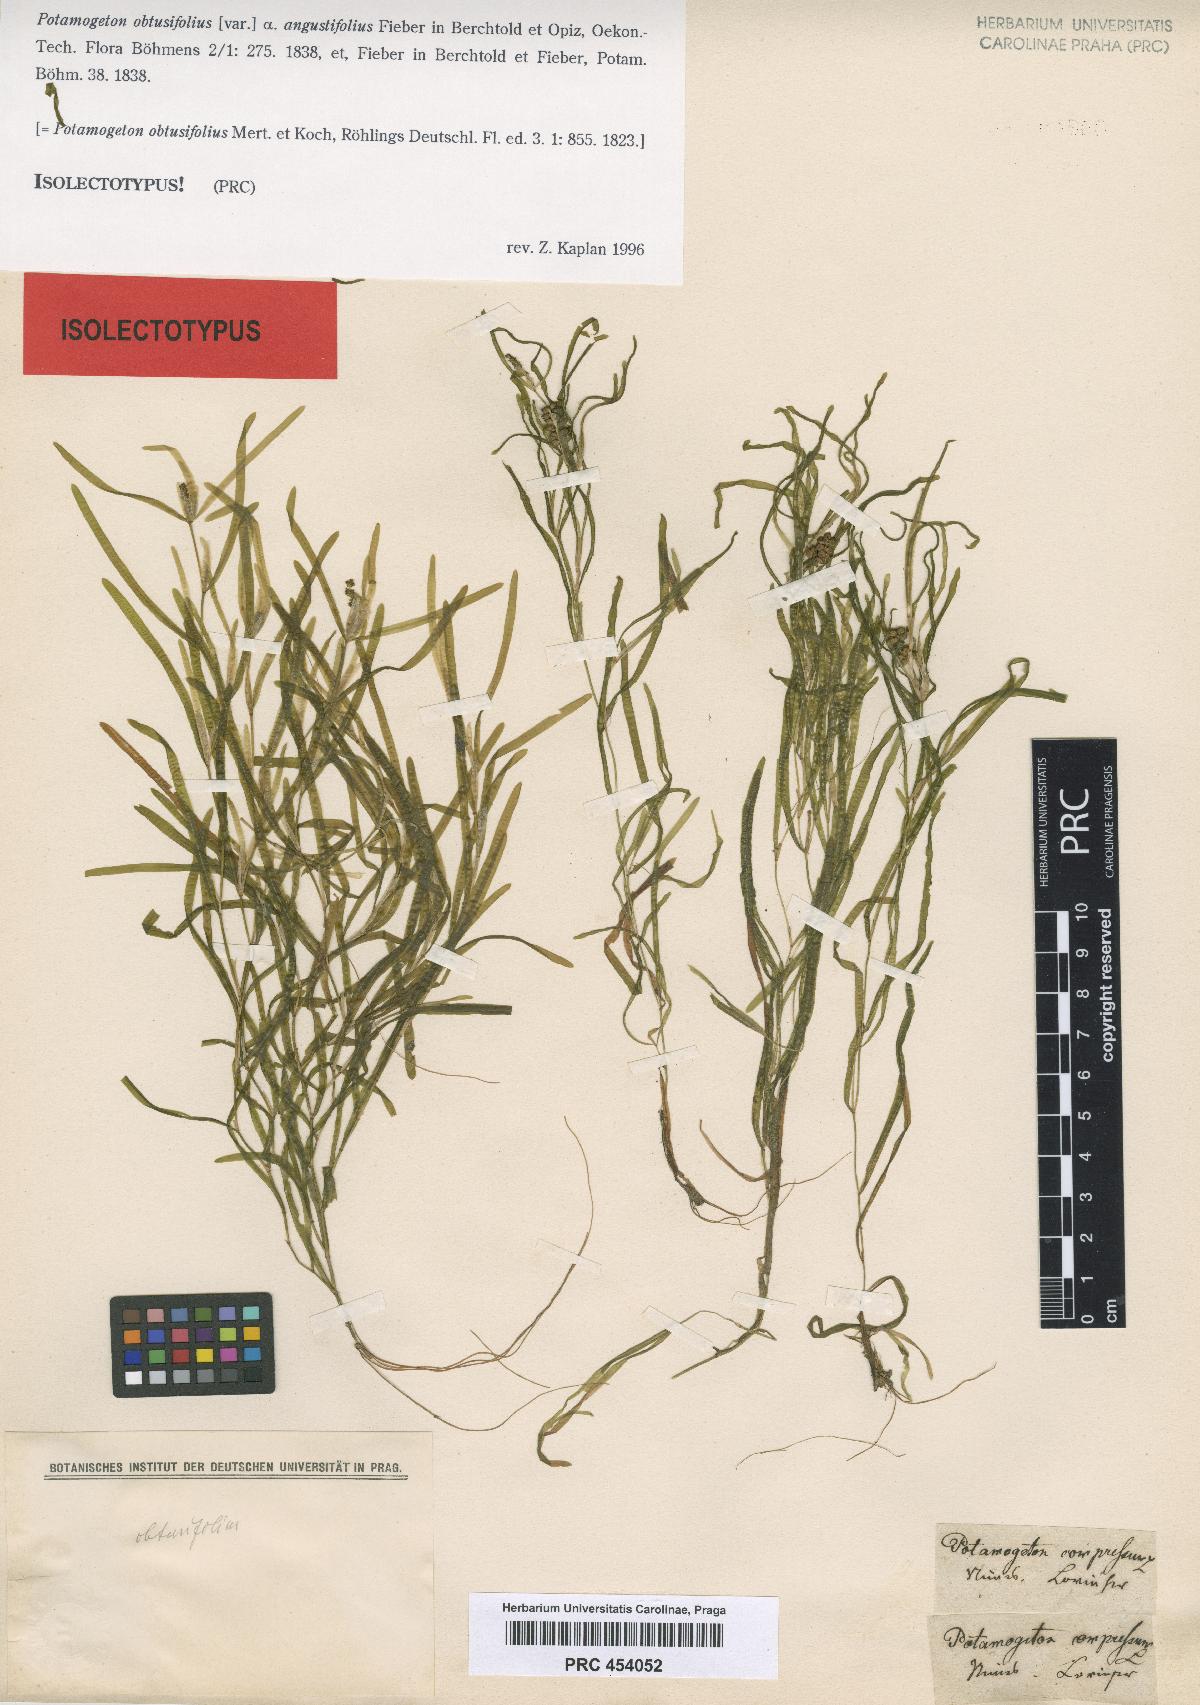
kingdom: Plantae
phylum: Tracheophyta
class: Liliopsida
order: Alismatales
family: Potamogetonaceae
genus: Potamogeton
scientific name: Potamogeton obtusifolius
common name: Blunt-leaved pondweed
